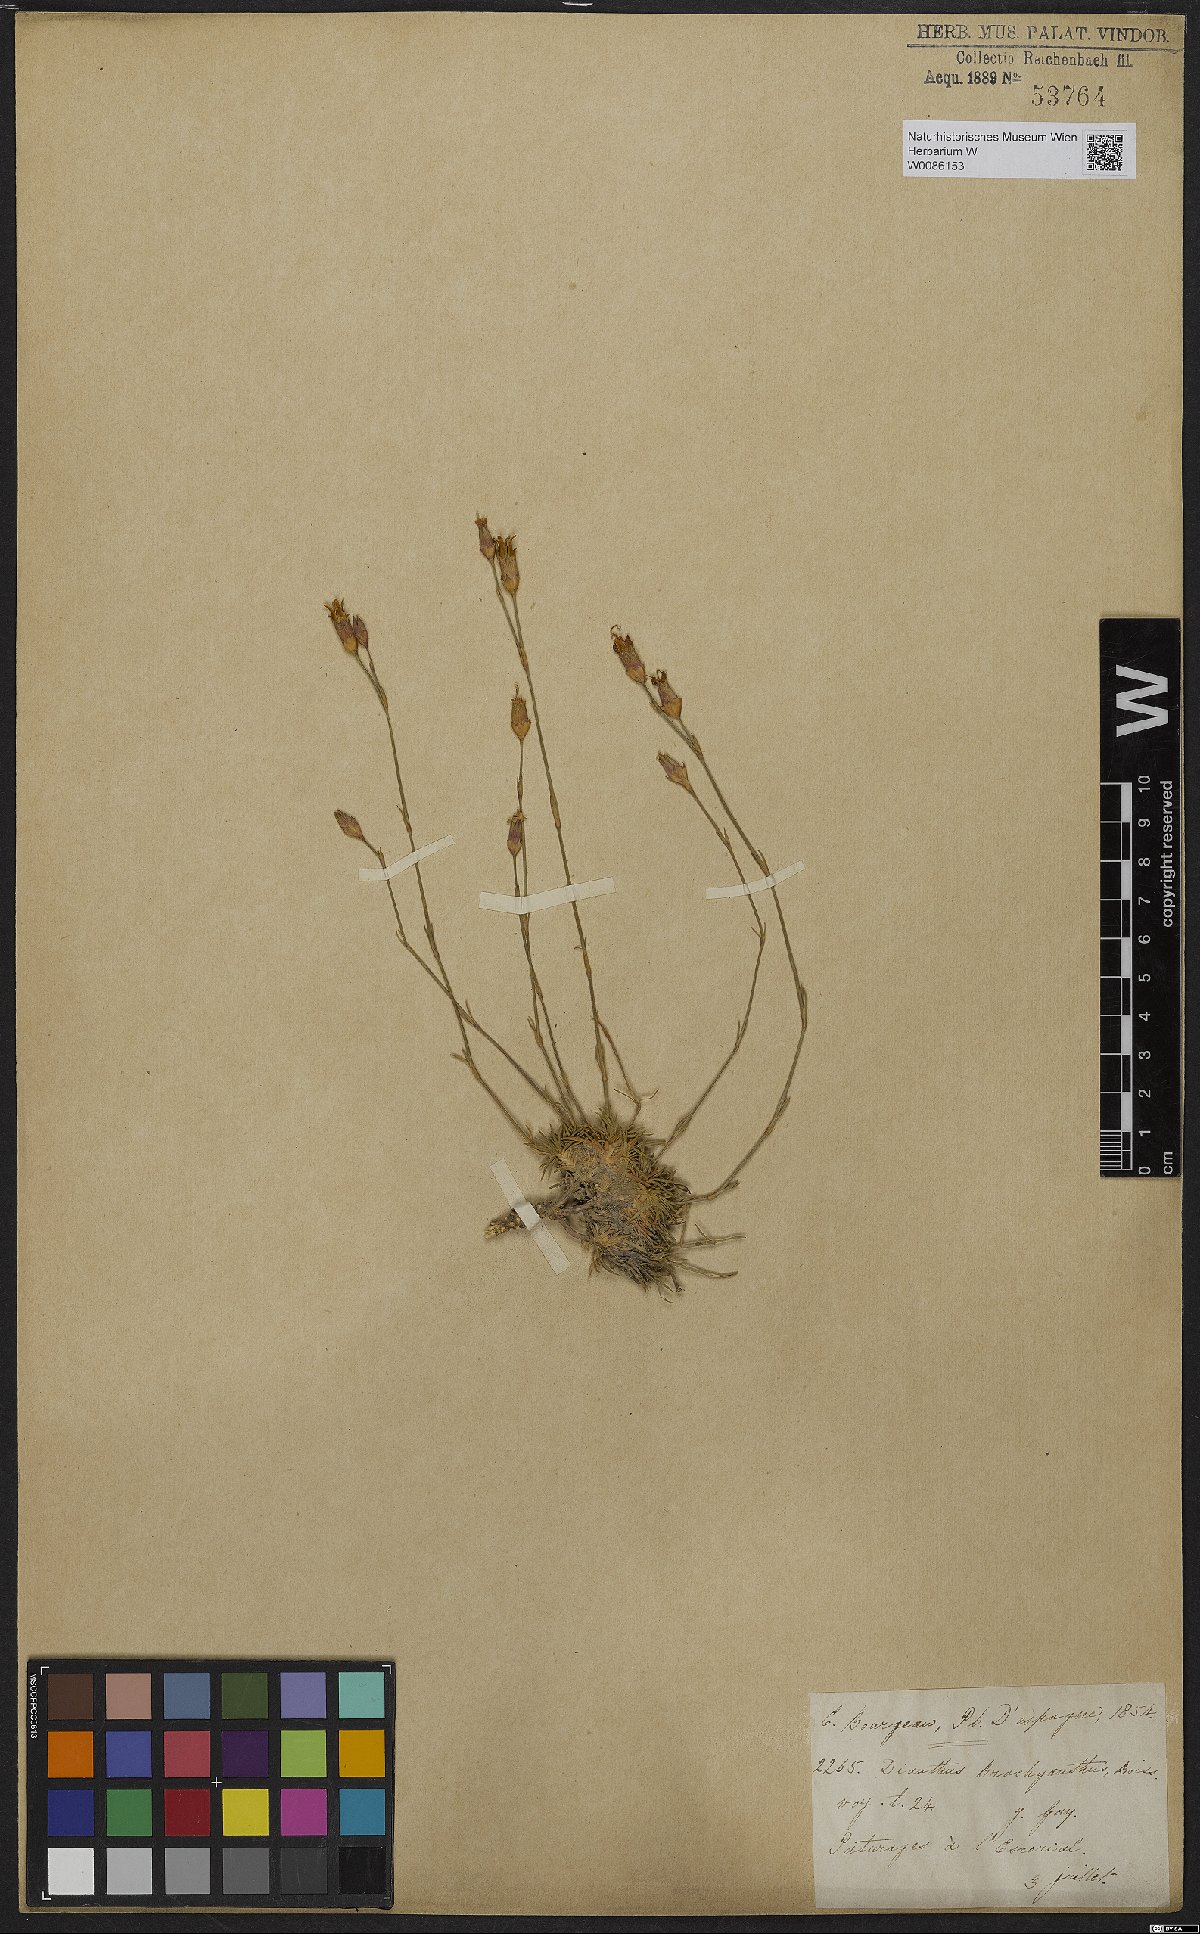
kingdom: Plantae
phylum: Tracheophyta
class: Magnoliopsida
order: Caryophyllales
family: Caryophyllaceae
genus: Dianthus
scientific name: Dianthus pungens
